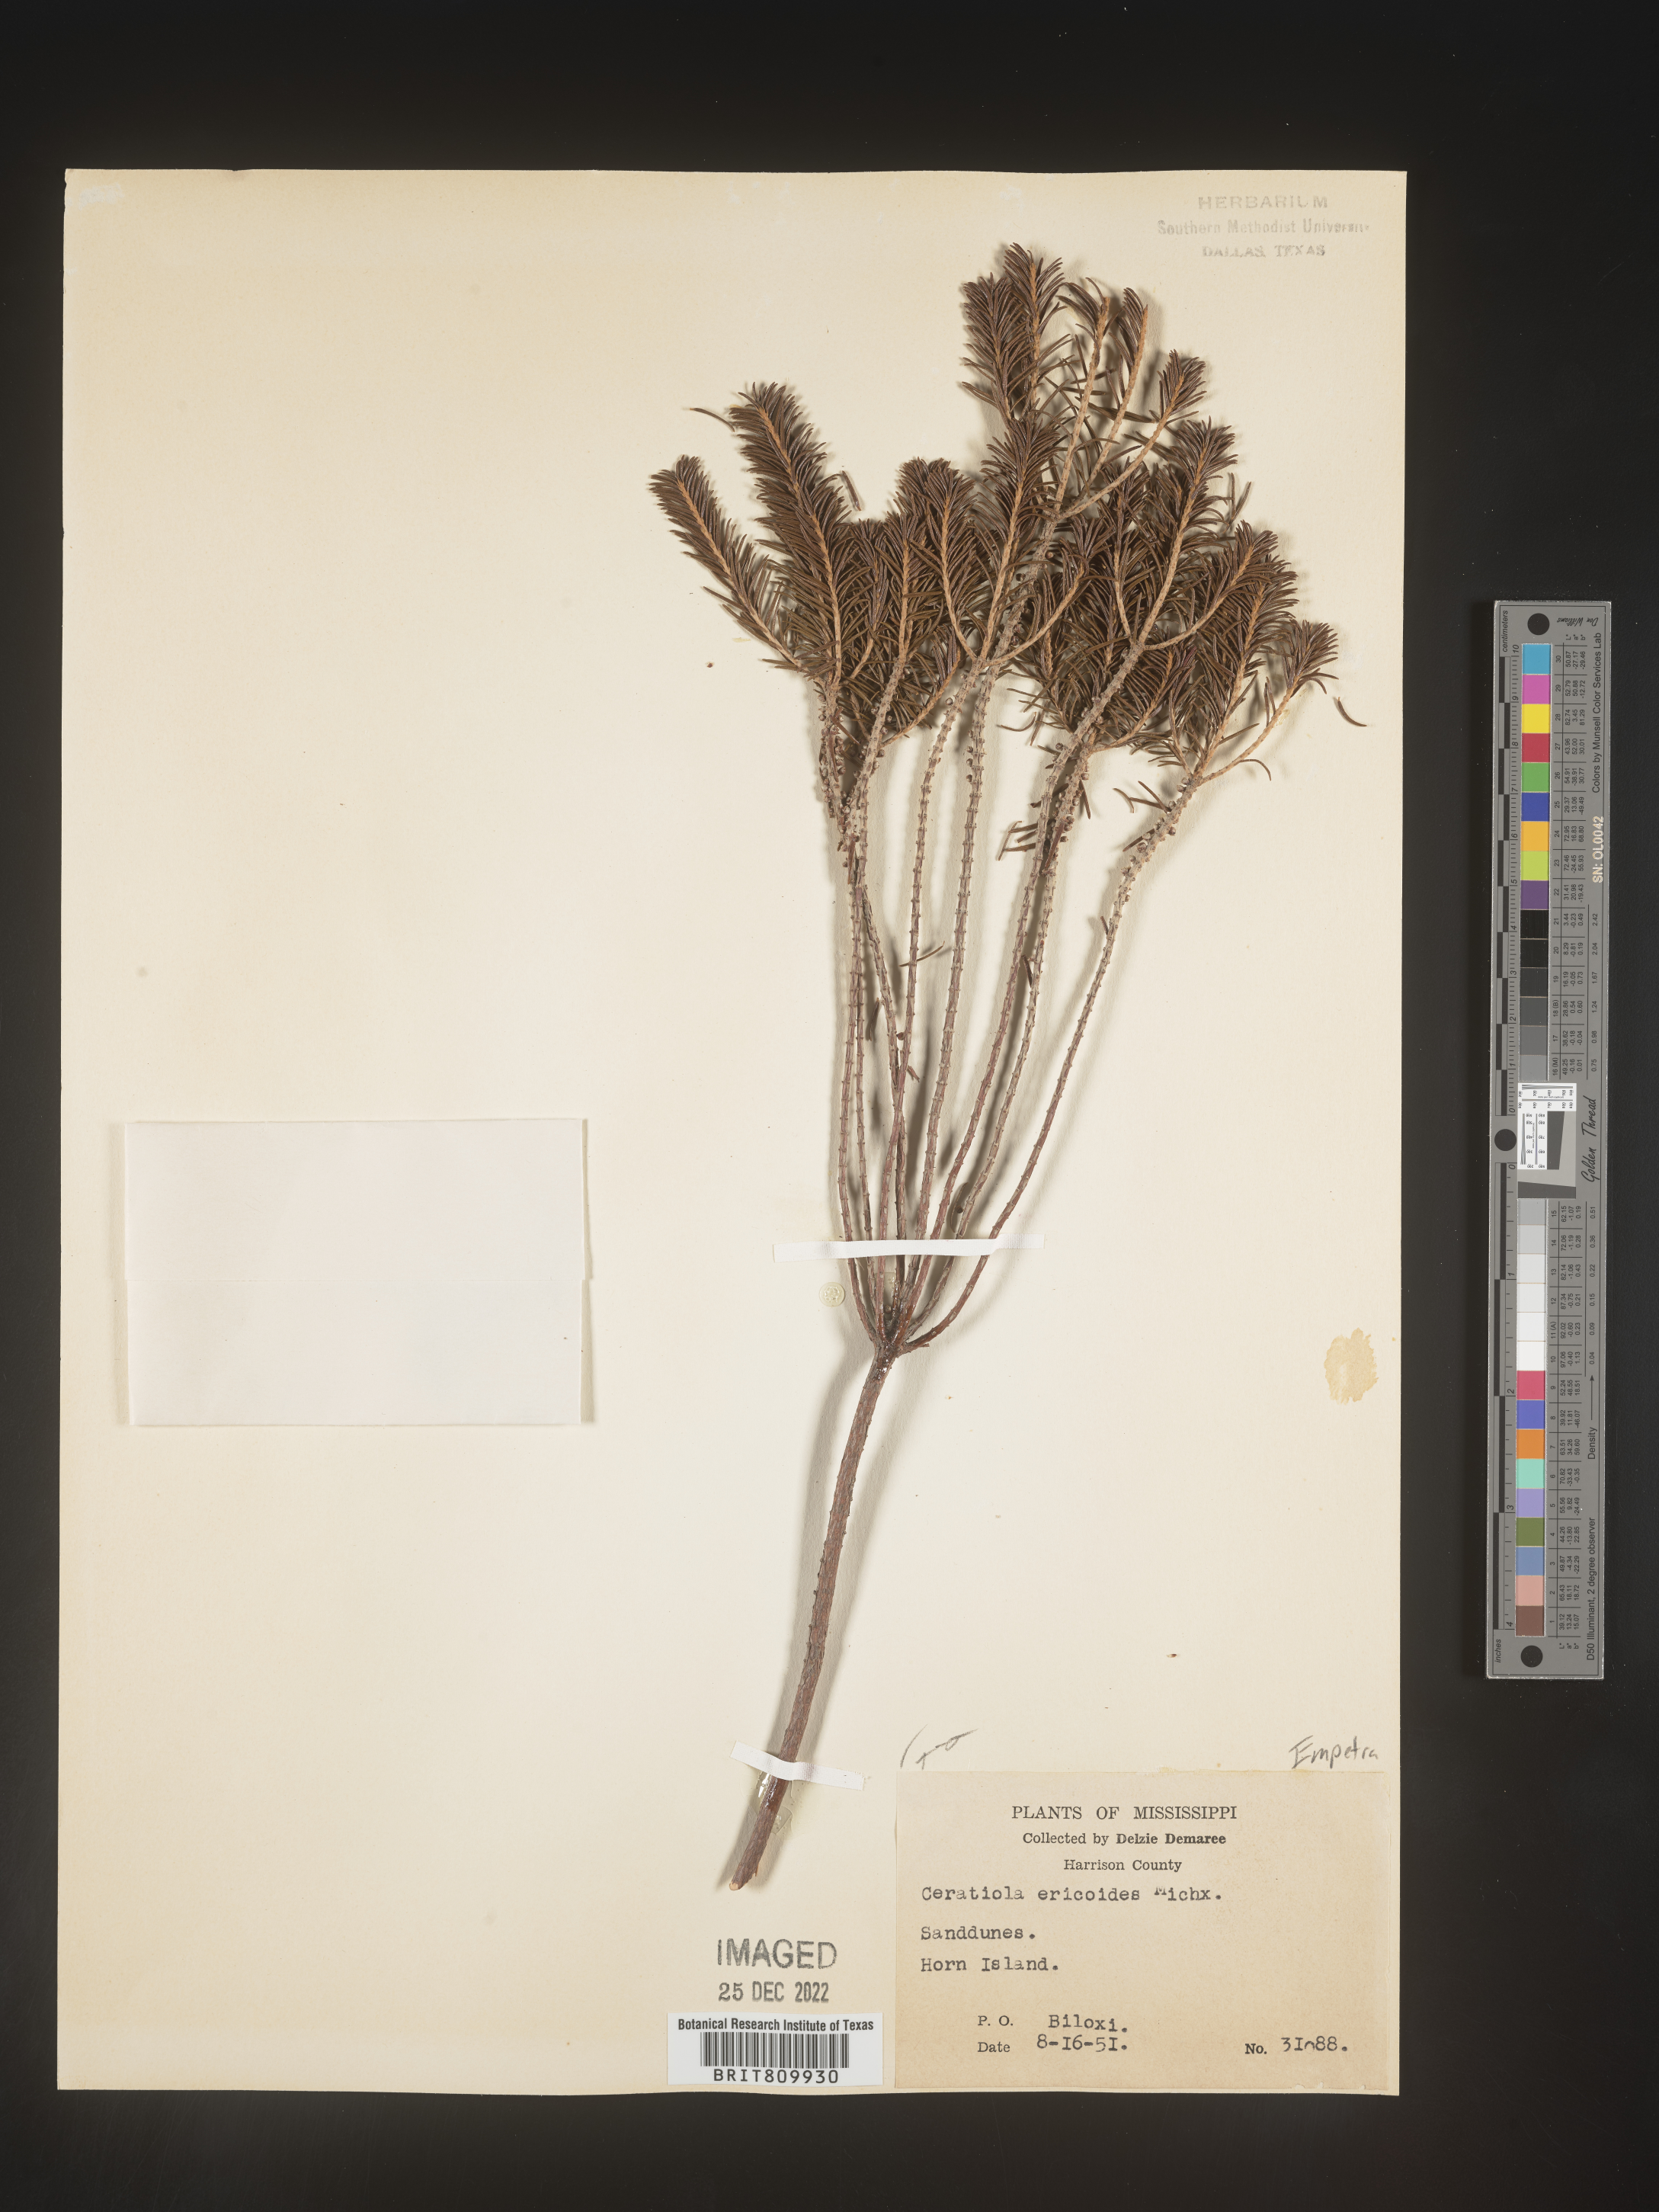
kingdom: Plantae
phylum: Tracheophyta
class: Magnoliopsida
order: Ericales
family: Ericaceae
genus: Ceratiola
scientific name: Ceratiola ericoides
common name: Sandhill-rosemary
